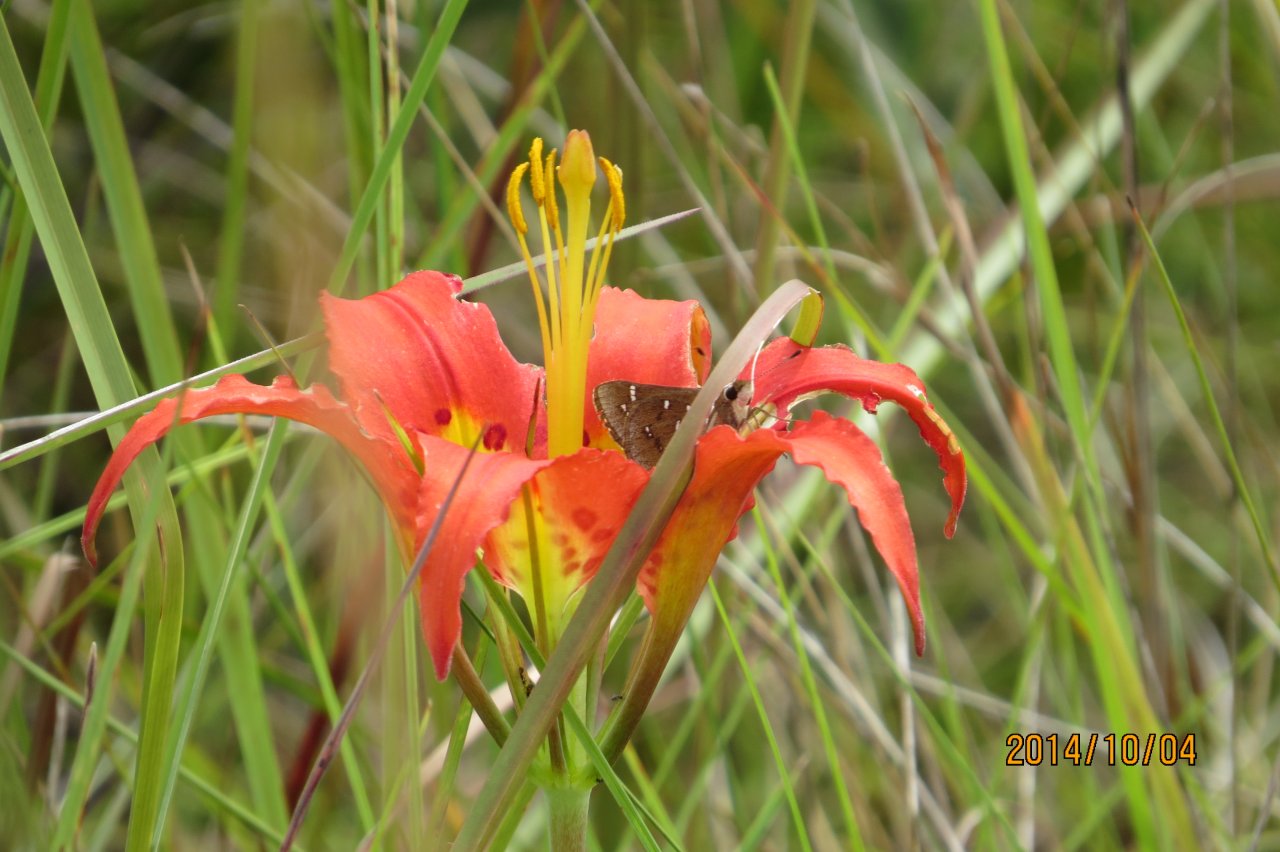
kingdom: Animalia
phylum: Arthropoda
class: Insecta
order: Lepidoptera
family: Hesperiidae
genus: Atrytonopsis
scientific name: Atrytonopsis loammi
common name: Loammi Skipper
